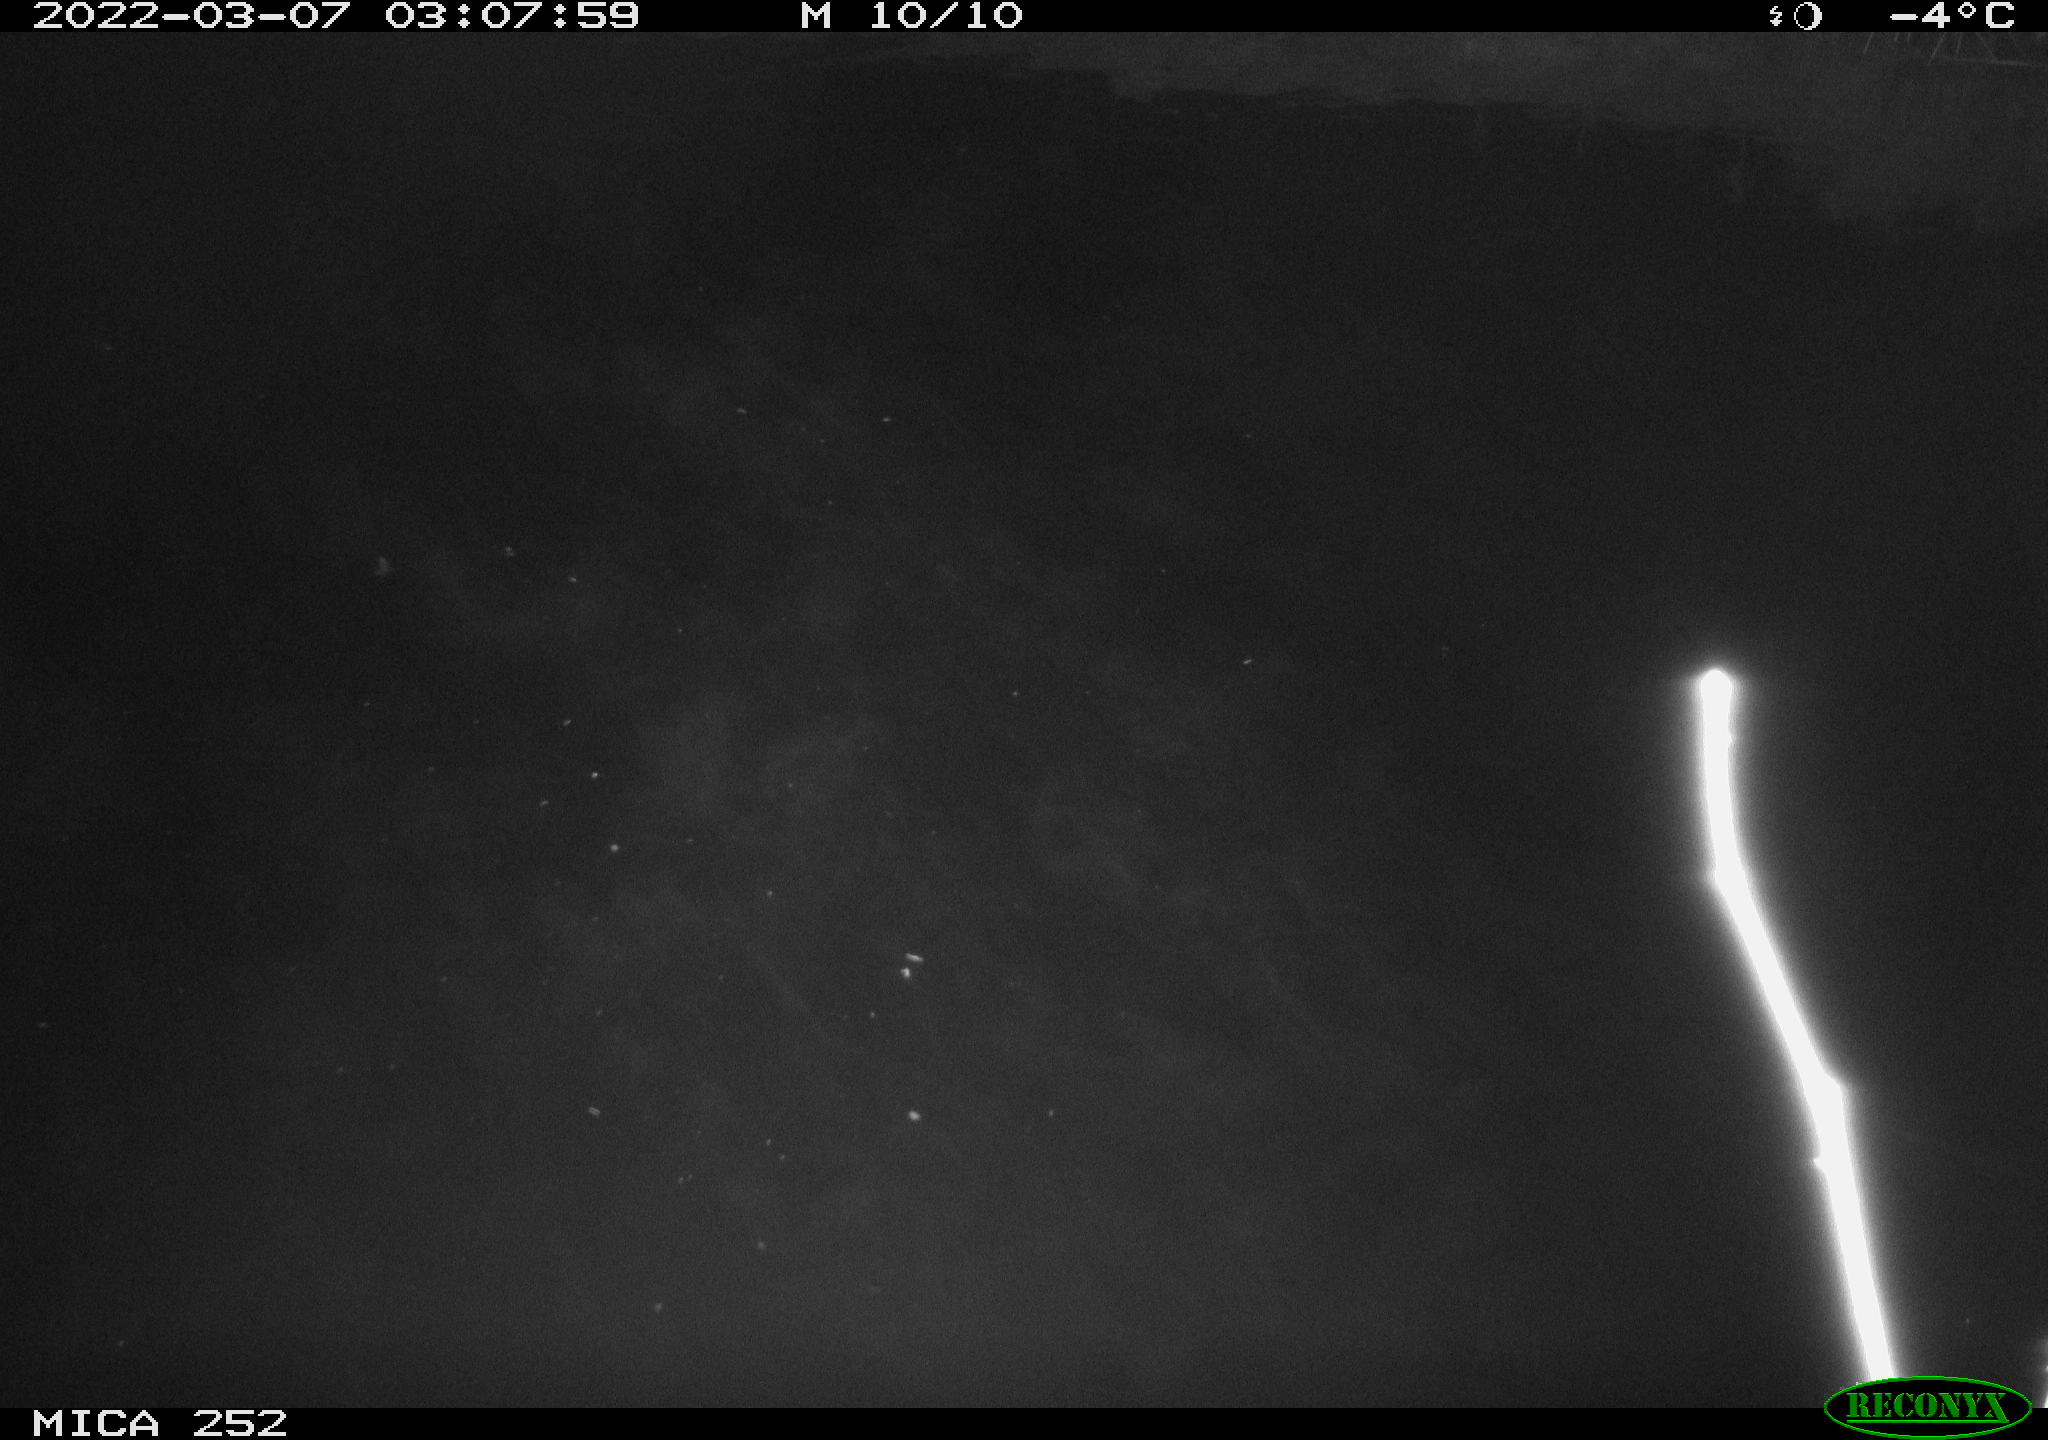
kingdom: Animalia
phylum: Chordata
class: Mammalia
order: Rodentia
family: Castoridae
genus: Castor
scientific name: Castor fiber
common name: Eurasian beaver
